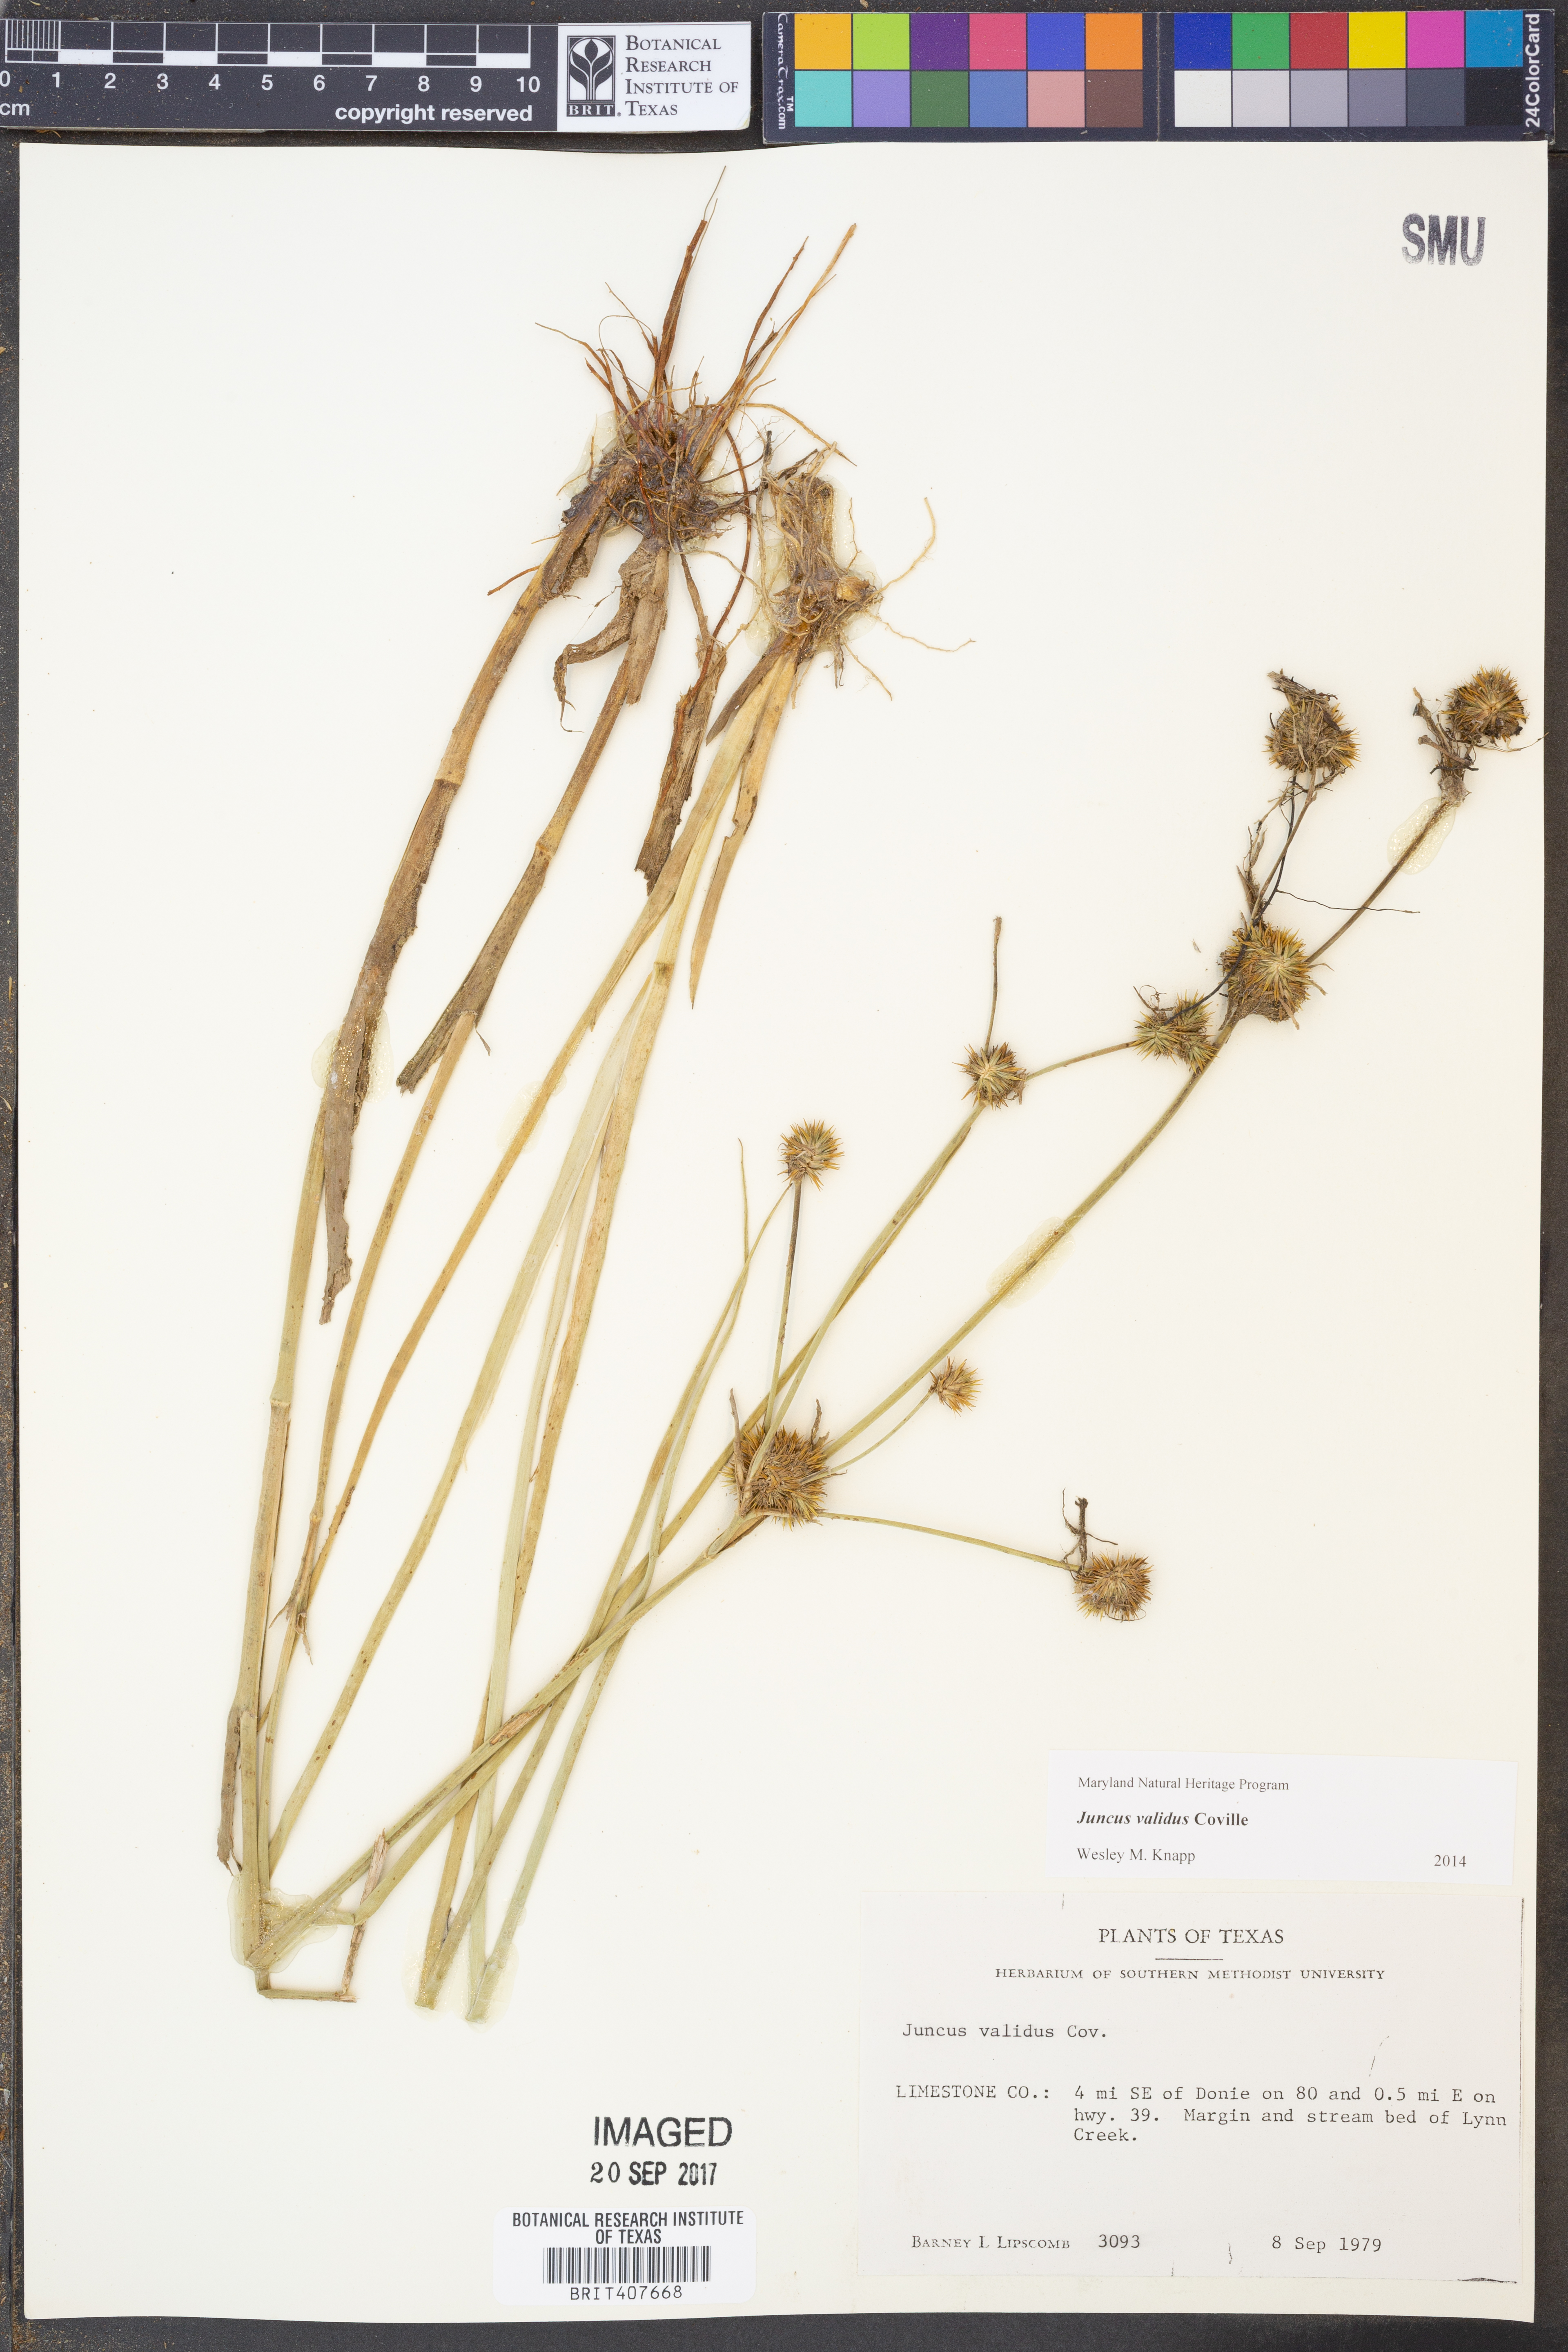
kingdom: Plantae
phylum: Tracheophyta
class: Liliopsida
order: Poales
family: Juncaceae
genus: Juncus
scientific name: Juncus validus
